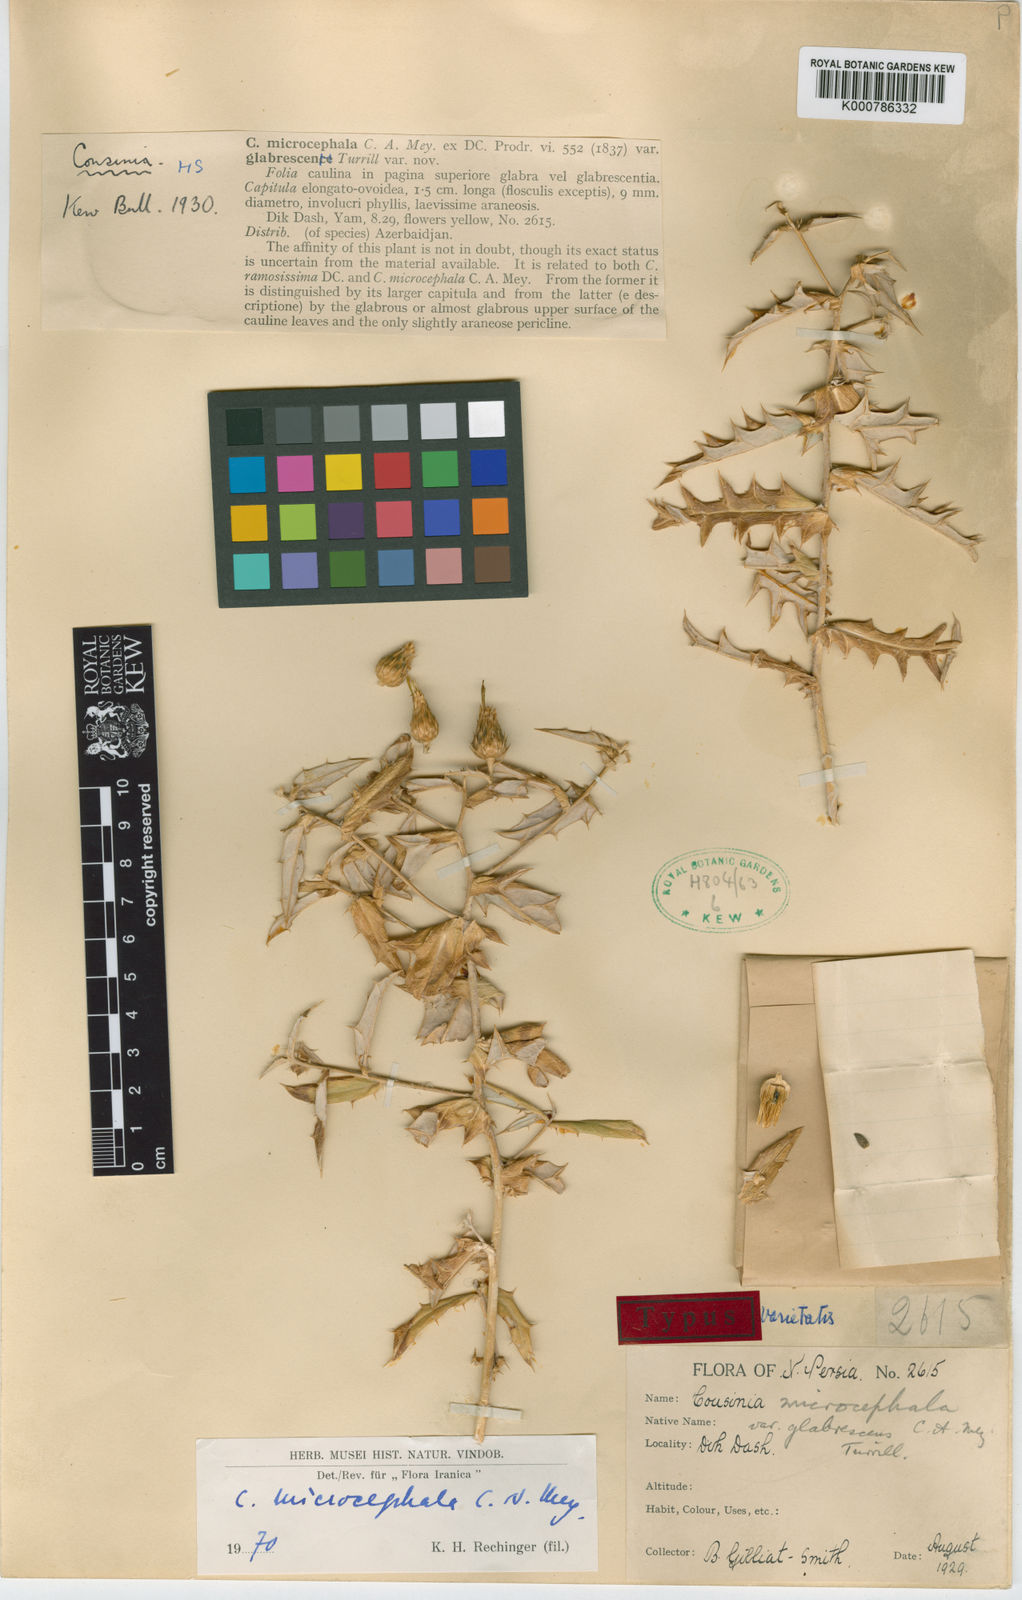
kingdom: Plantae
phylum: Tracheophyta
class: Magnoliopsida
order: Asterales
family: Asteraceae
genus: Cousinia
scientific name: Cousinia
